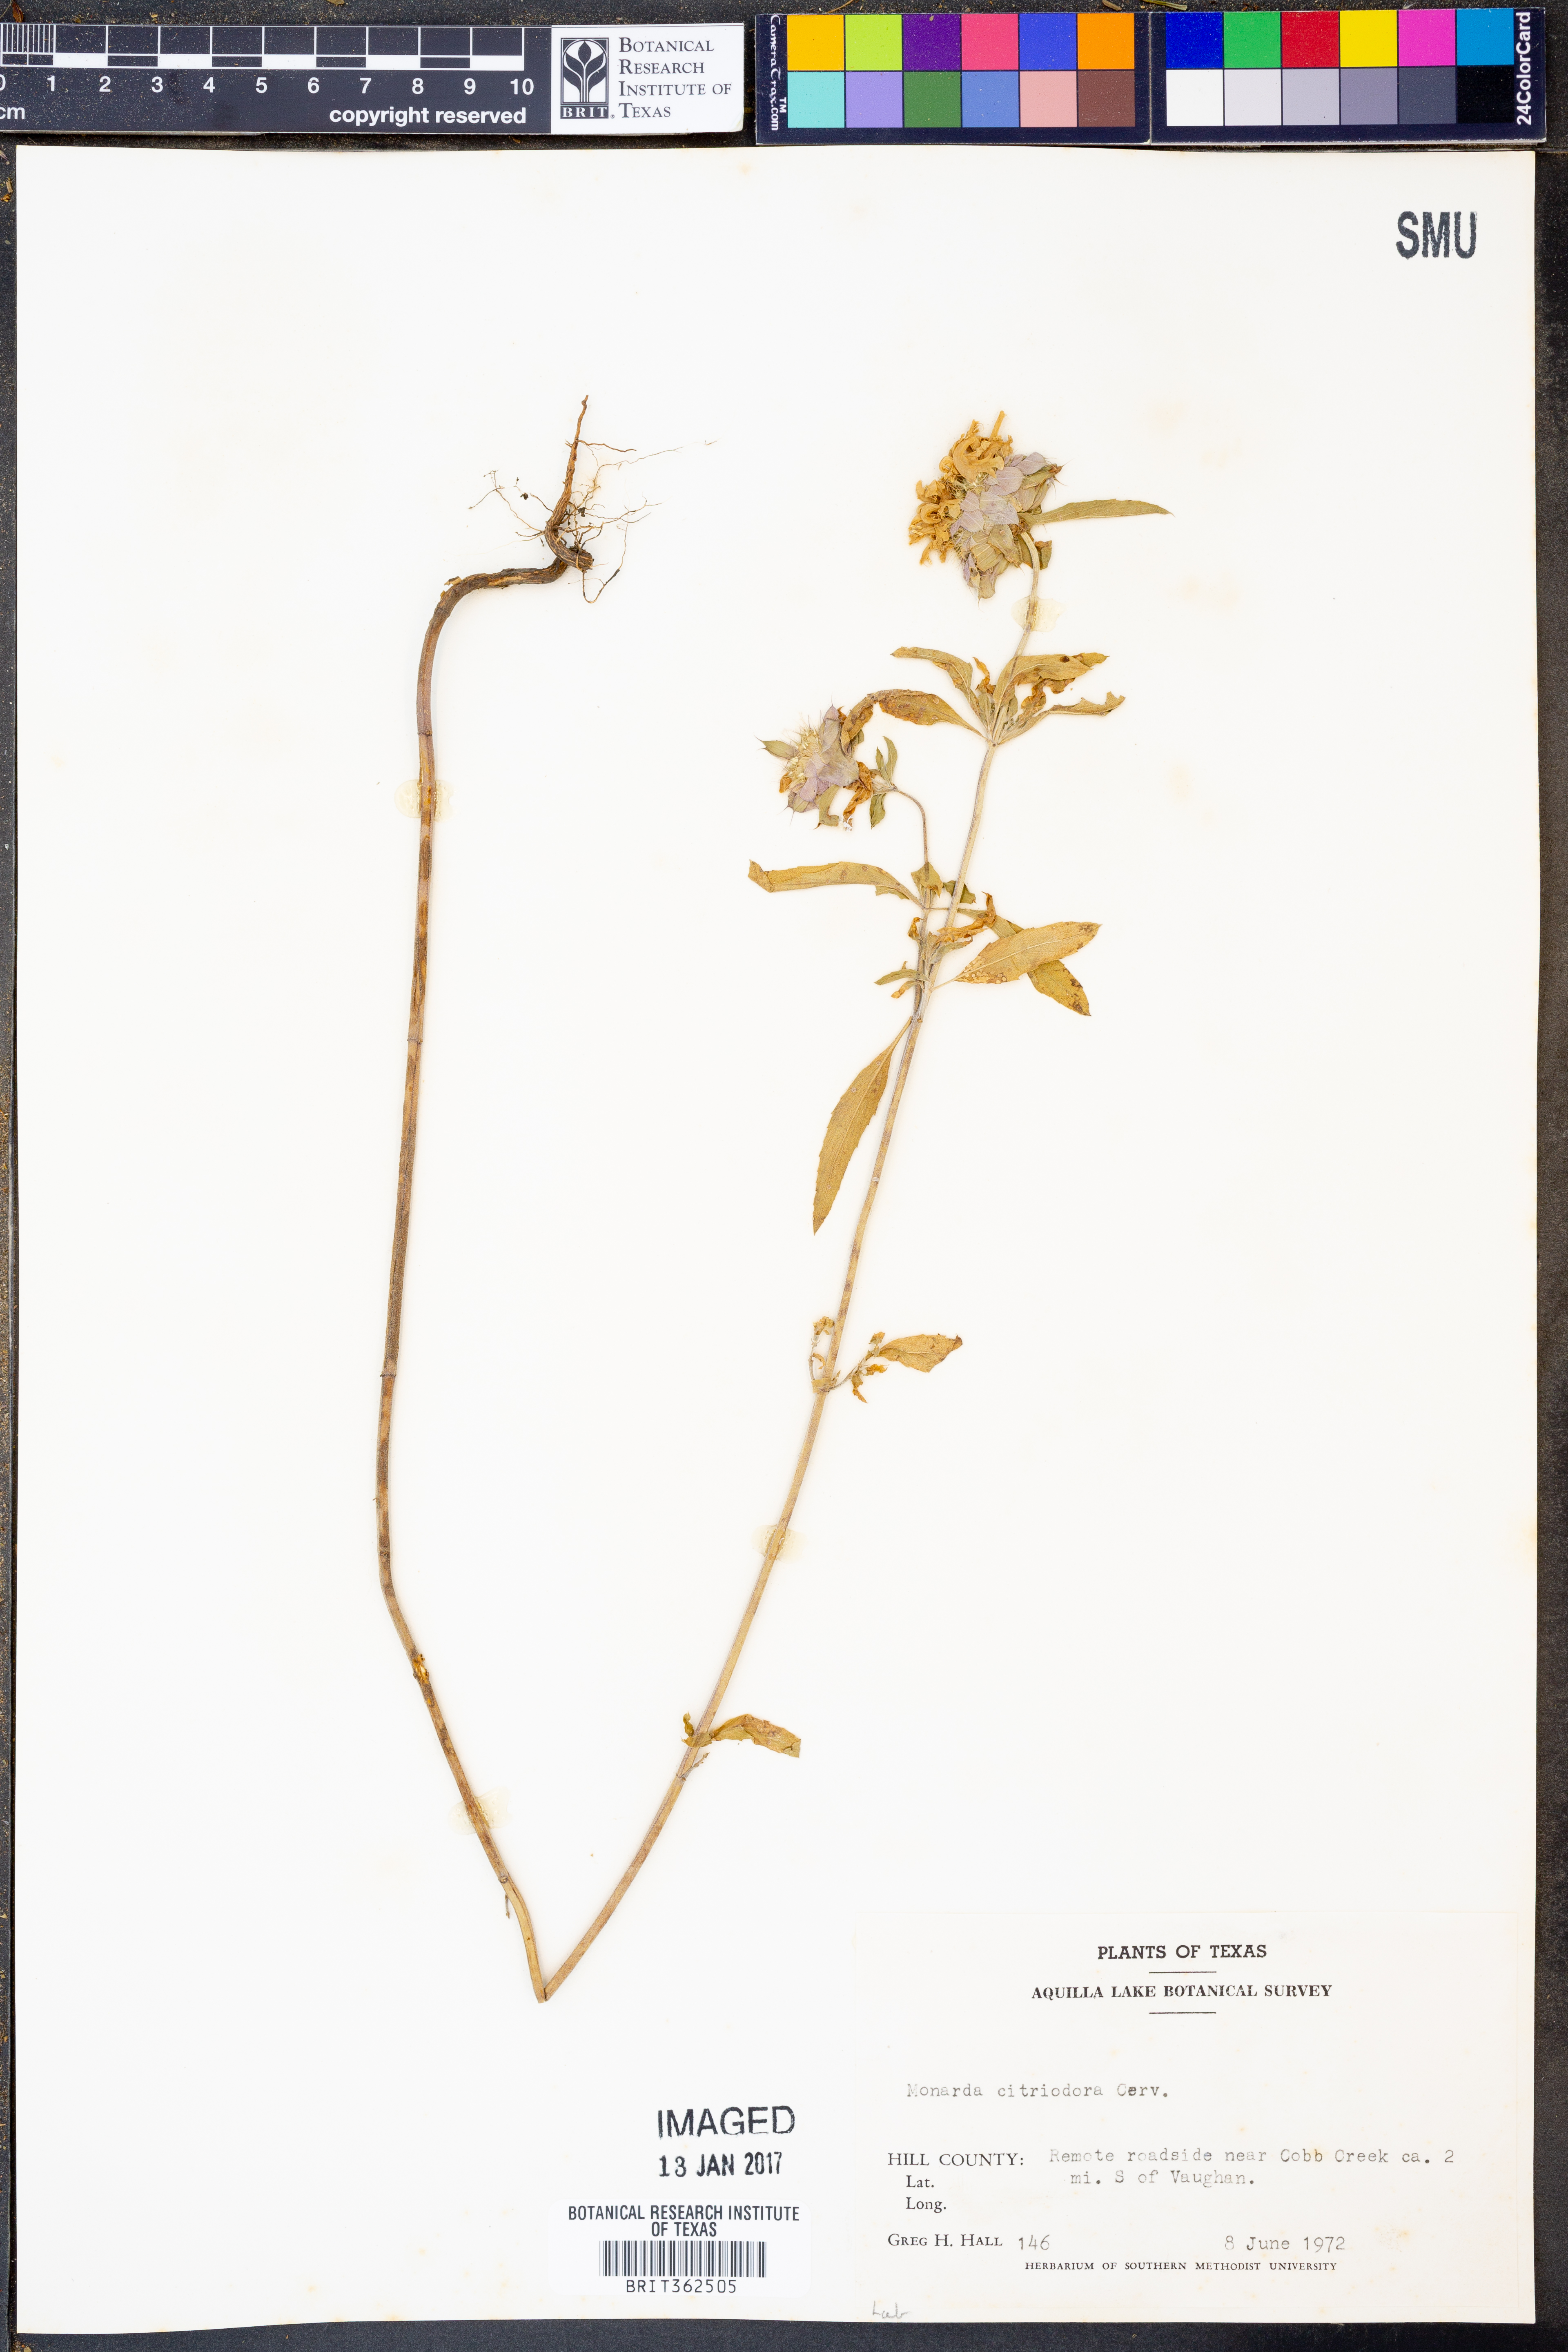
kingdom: Plantae
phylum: Tracheophyta
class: Magnoliopsida
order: Lamiales
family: Lamiaceae
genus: Monarda
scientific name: Monarda citriodora
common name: Lemon beebalm
